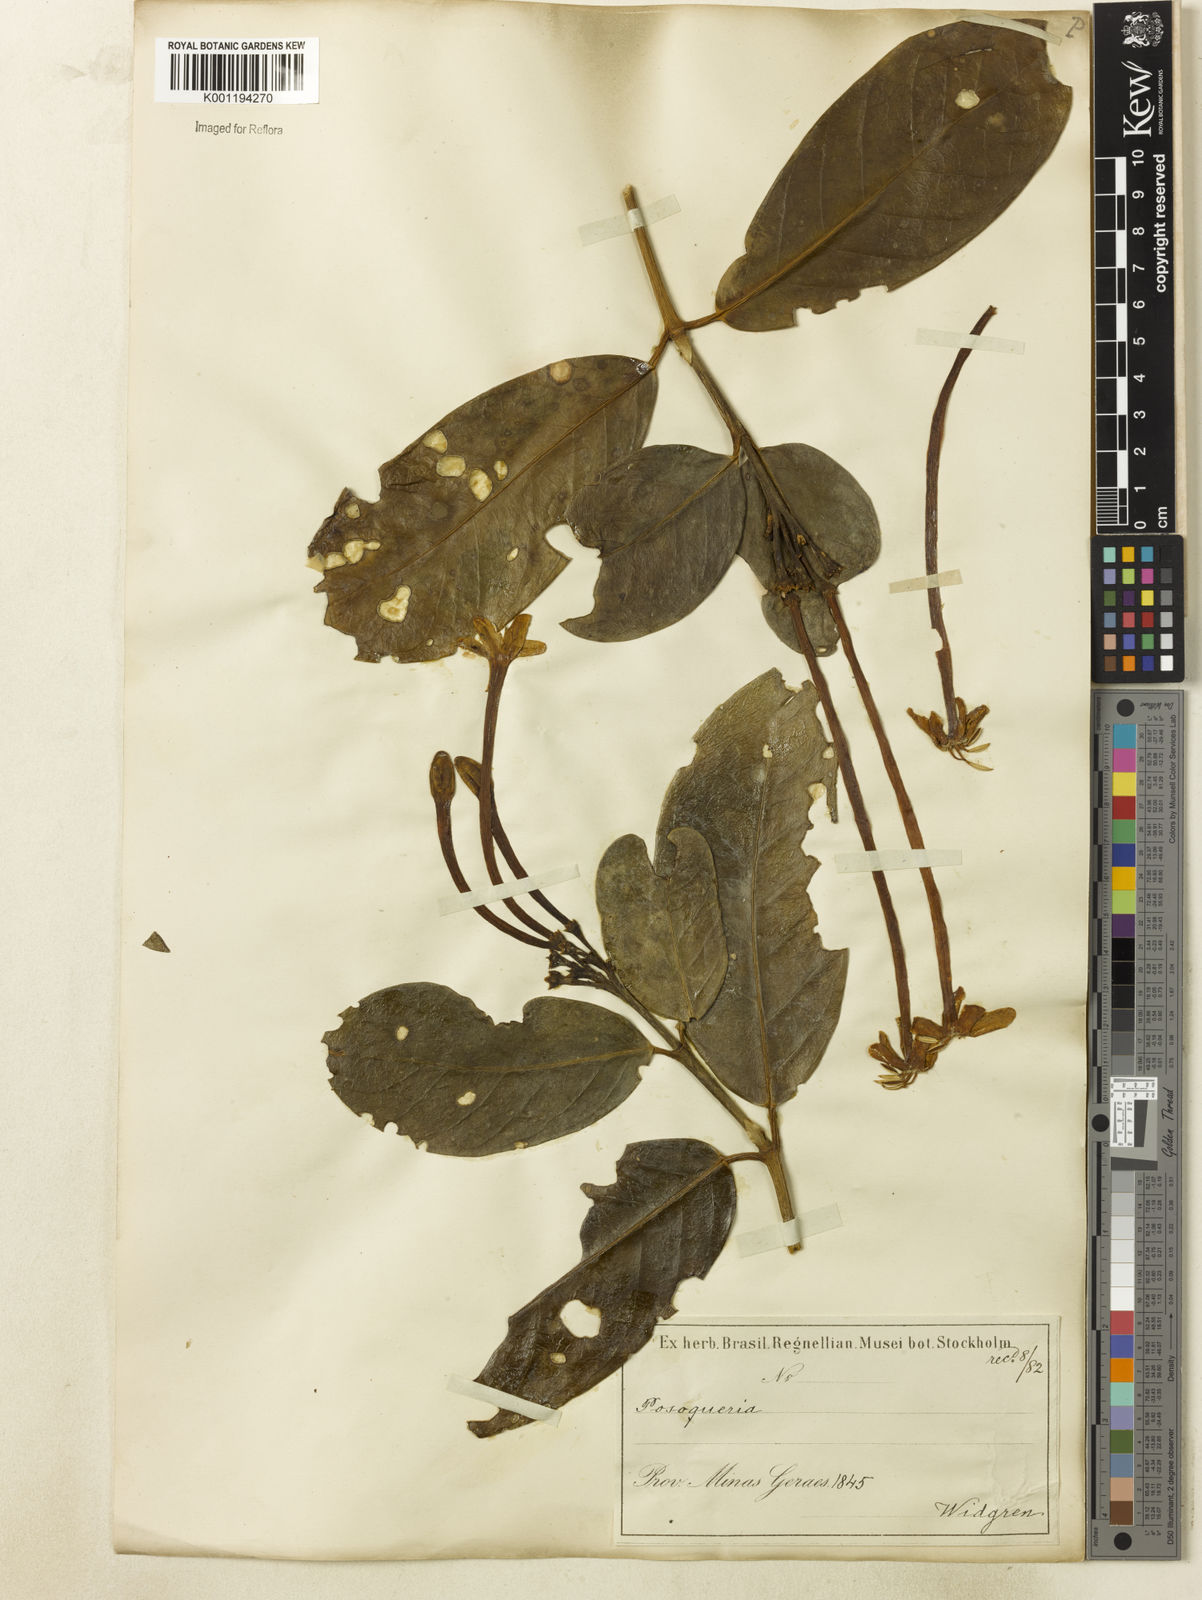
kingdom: Plantae
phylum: Tracheophyta
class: Magnoliopsida
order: Gentianales
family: Rubiaceae
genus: Posoqueria
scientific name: Posoqueria latifolia
